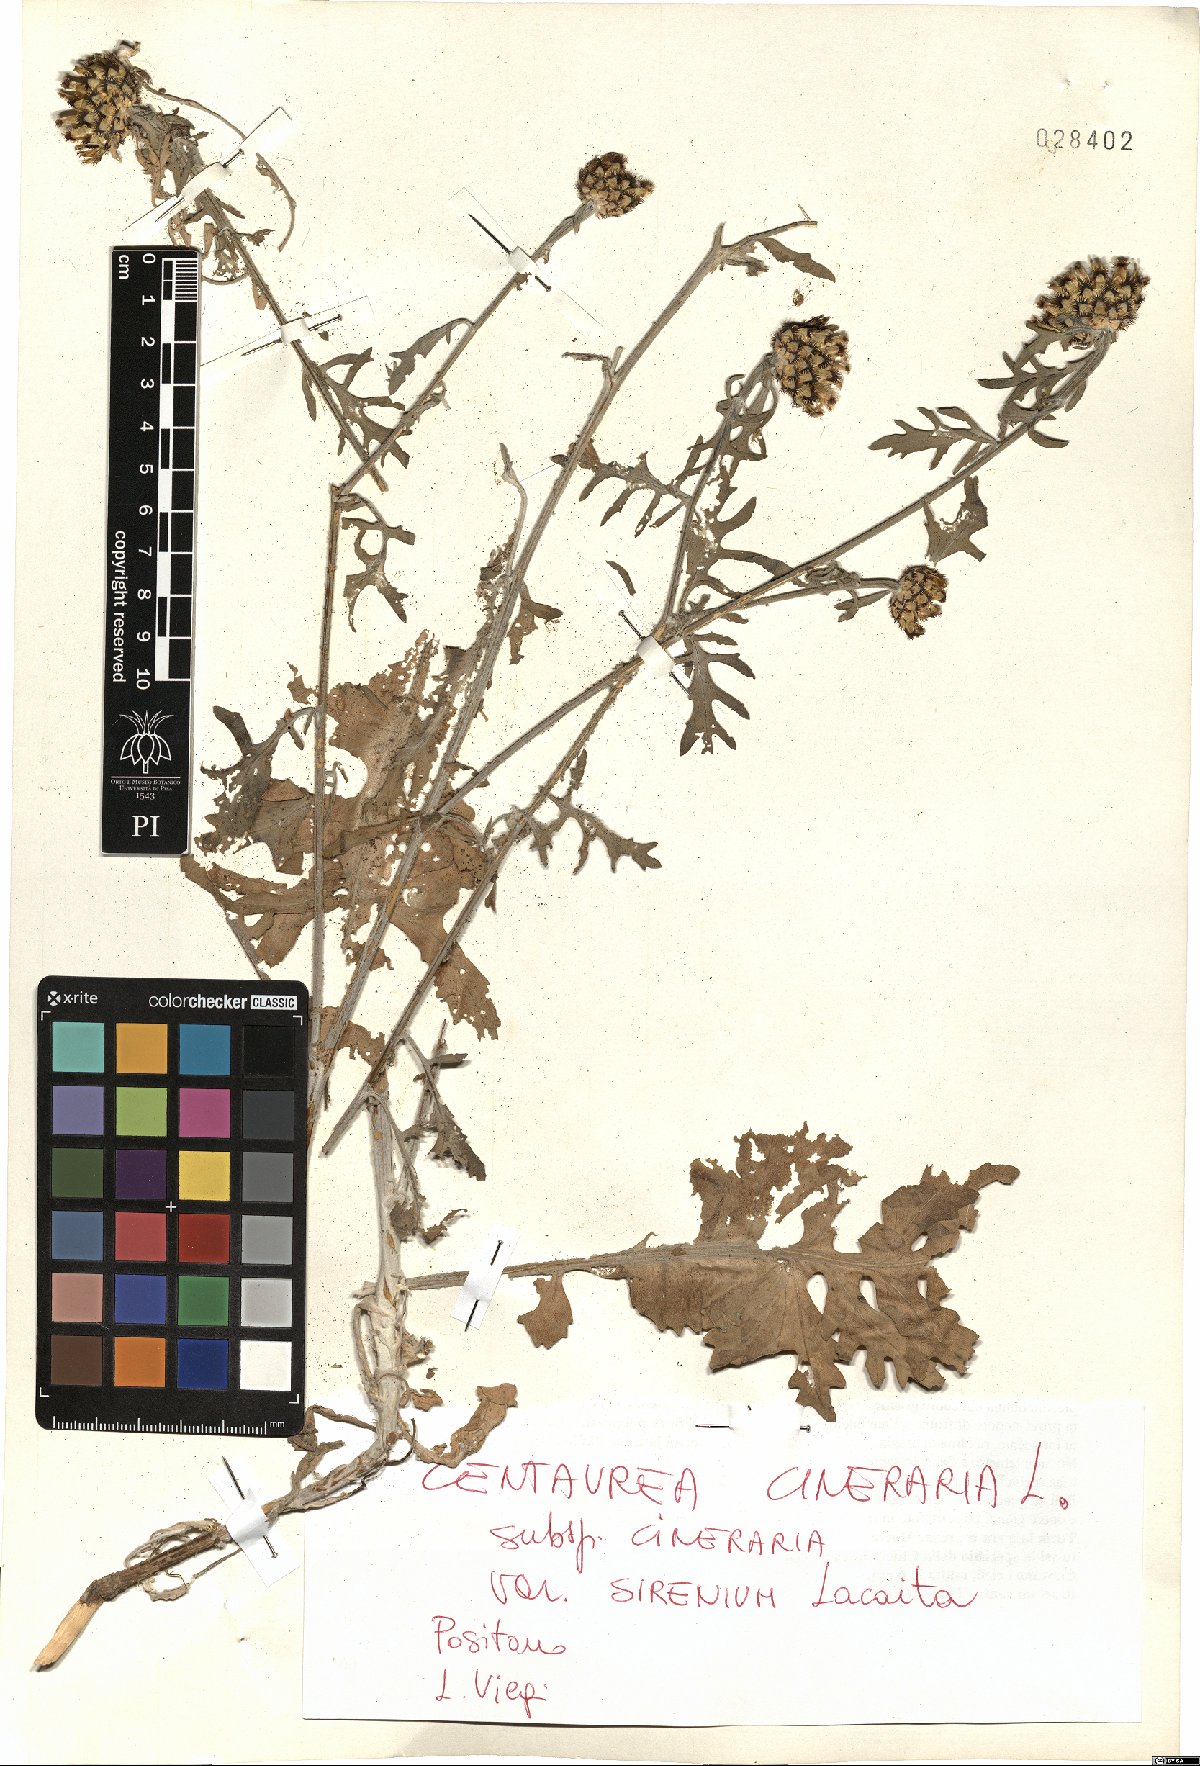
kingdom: Plantae
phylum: Tracheophyta
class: Magnoliopsida
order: Asterales
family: Asteraceae
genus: Centaurea
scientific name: Centaurea cineraria
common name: Dusty miller
